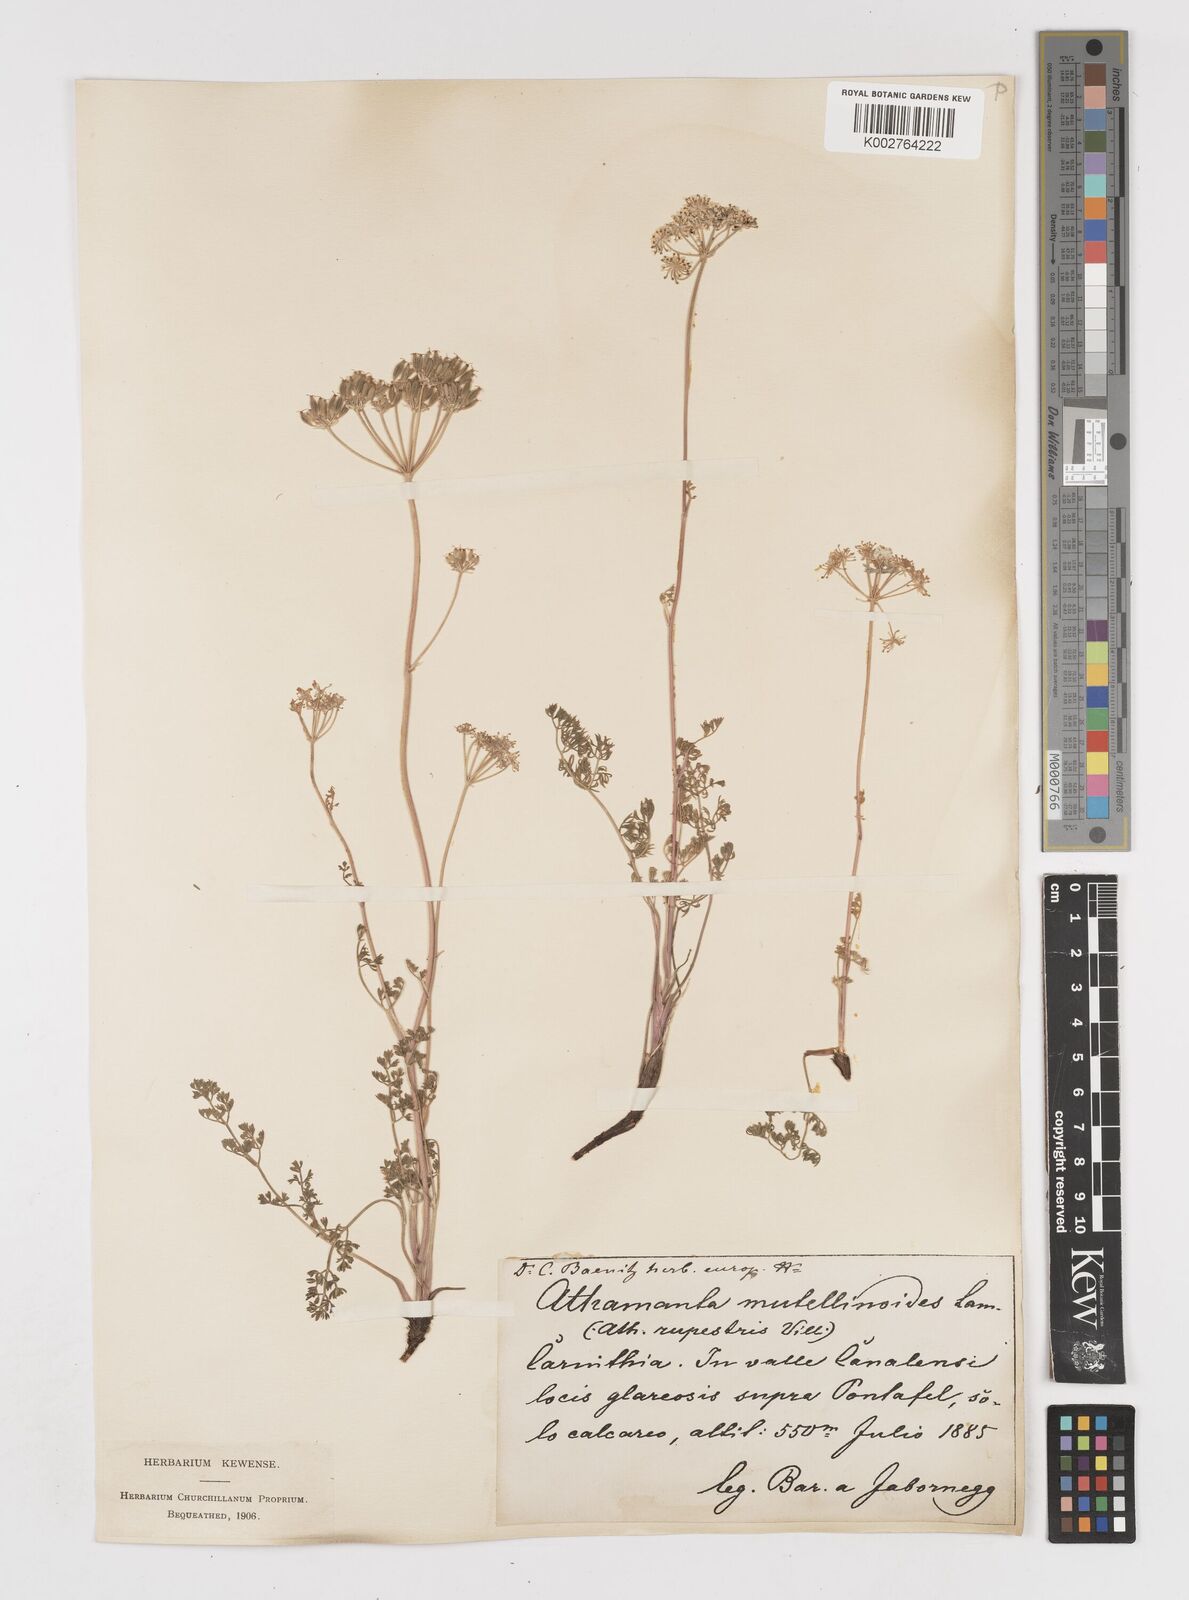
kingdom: Plantae
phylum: Tracheophyta
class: Magnoliopsida
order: Apiales
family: Apiaceae
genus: Athamanta
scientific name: Athamanta cretensis
